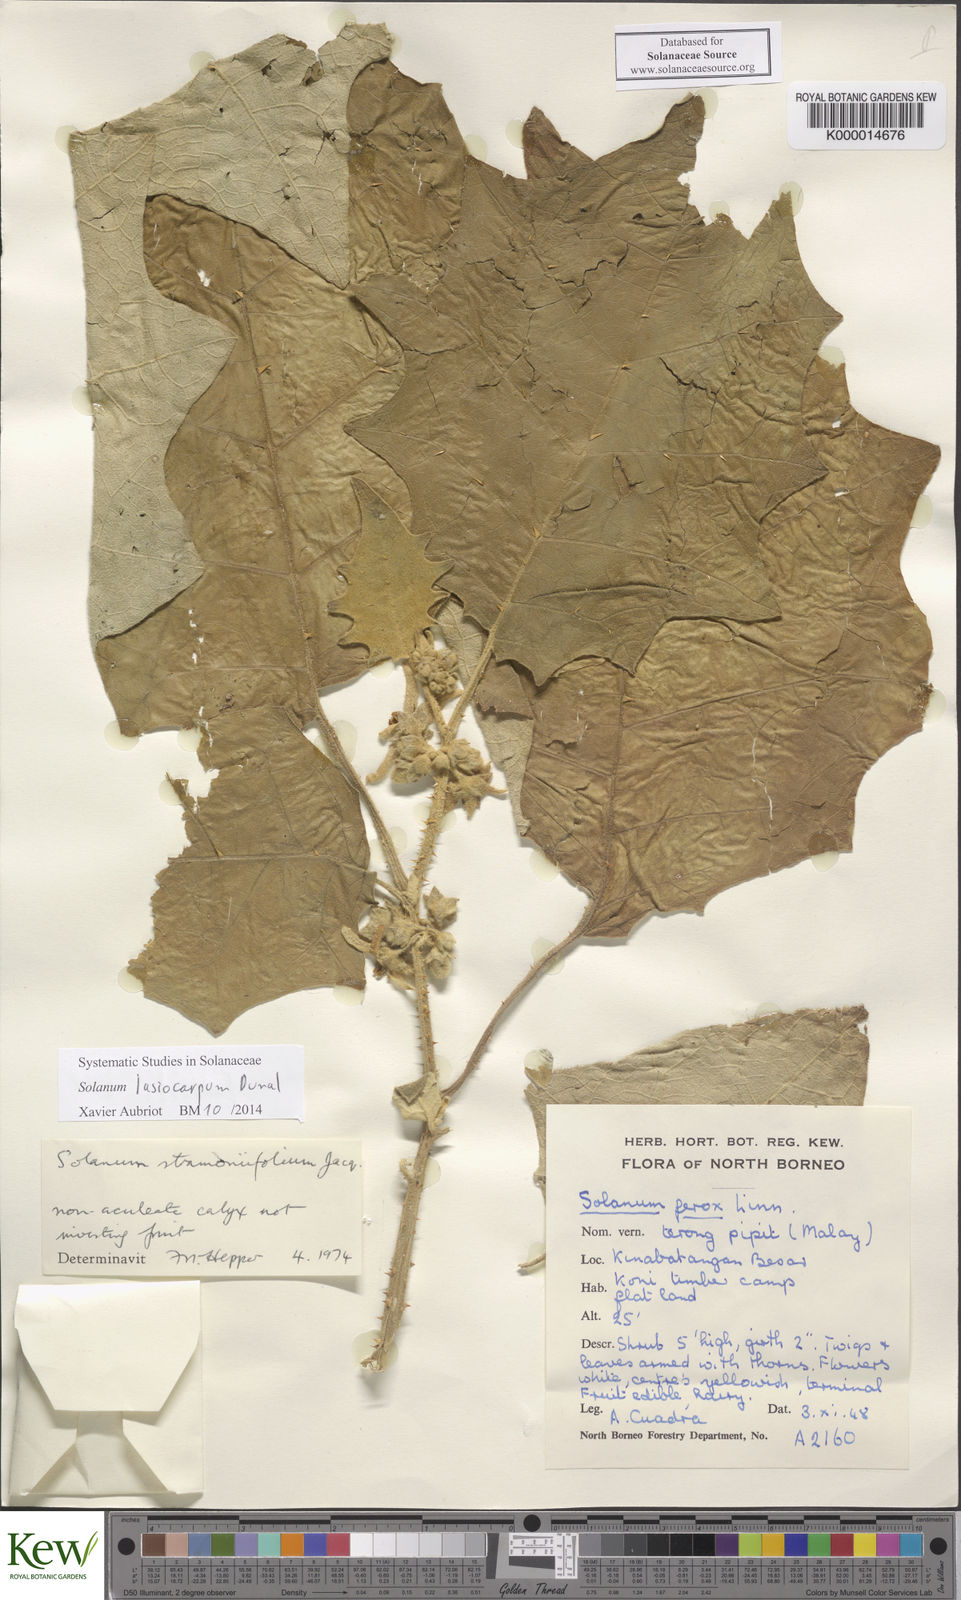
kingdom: Plantae
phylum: Tracheophyta
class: Magnoliopsida
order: Solanales
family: Solanaceae
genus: Solanum
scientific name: Solanum lasiocarpum
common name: Indian nightshade
